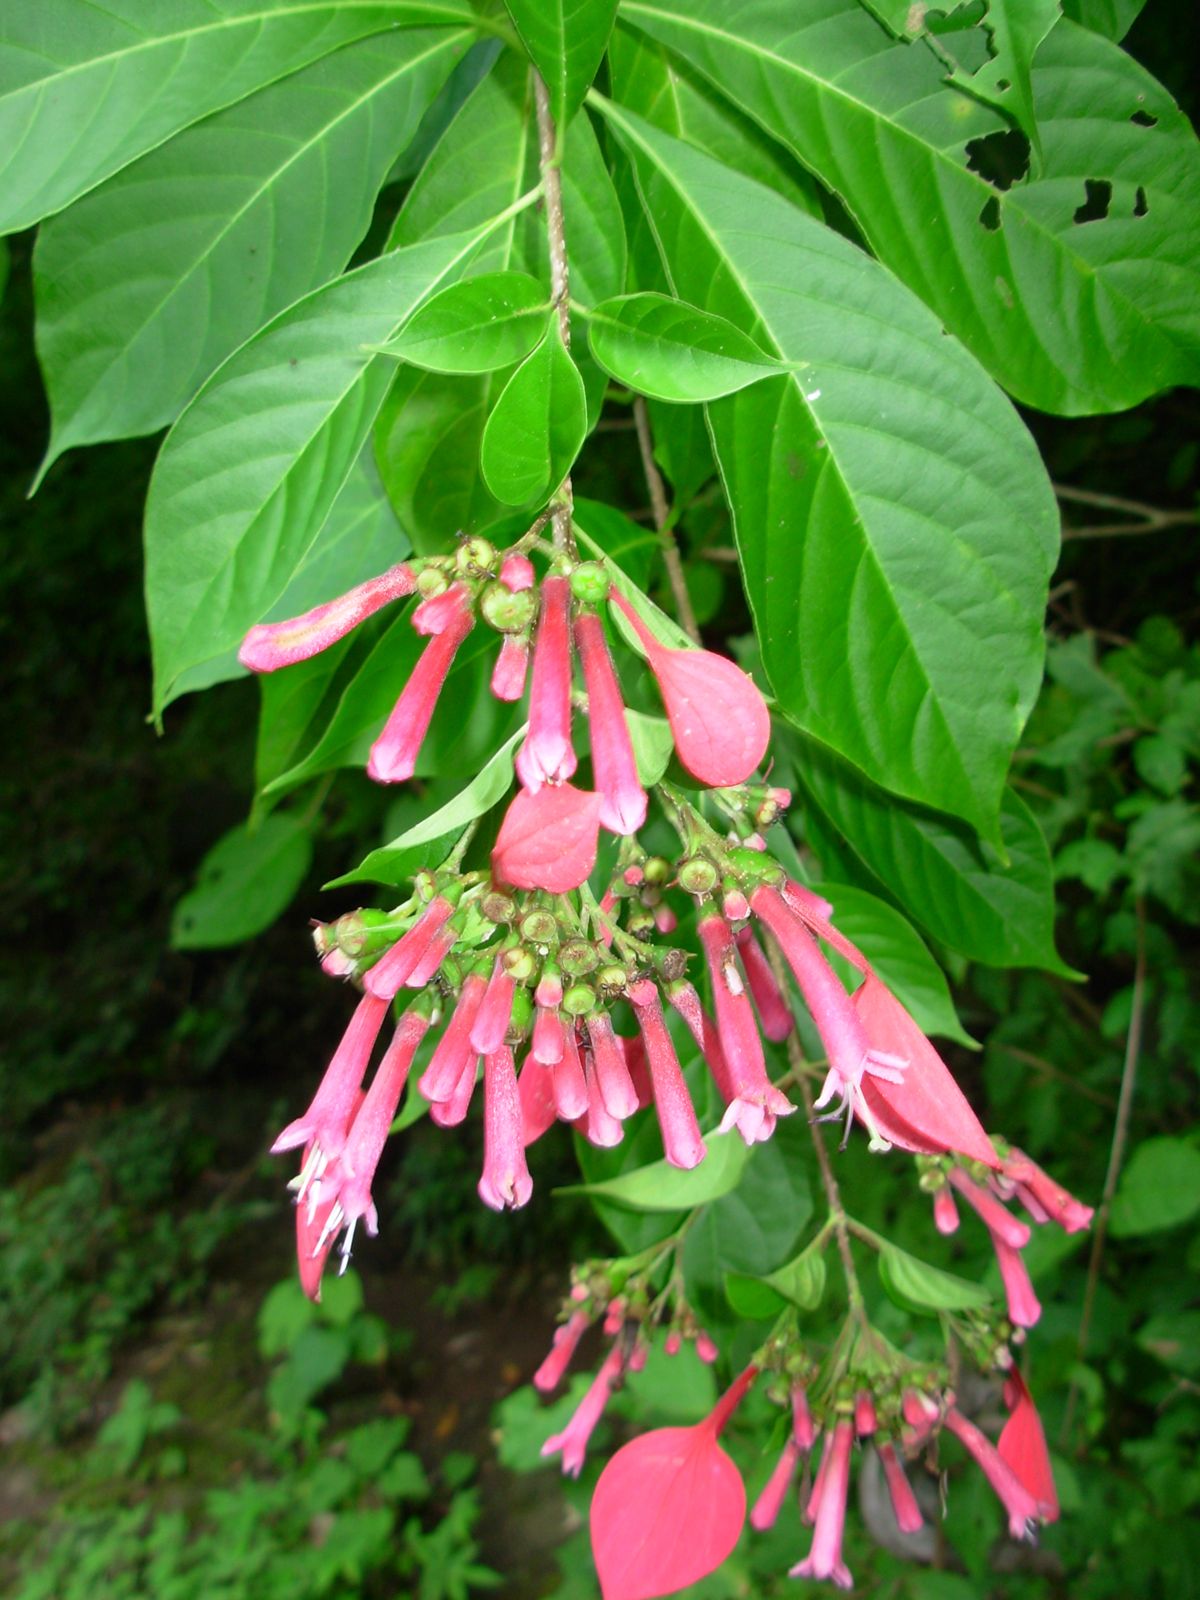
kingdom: Plantae
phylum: Tracheophyta
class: Magnoliopsida
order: Gentianales
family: Rubiaceae
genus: Pogonopus
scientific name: Pogonopus exsertus
